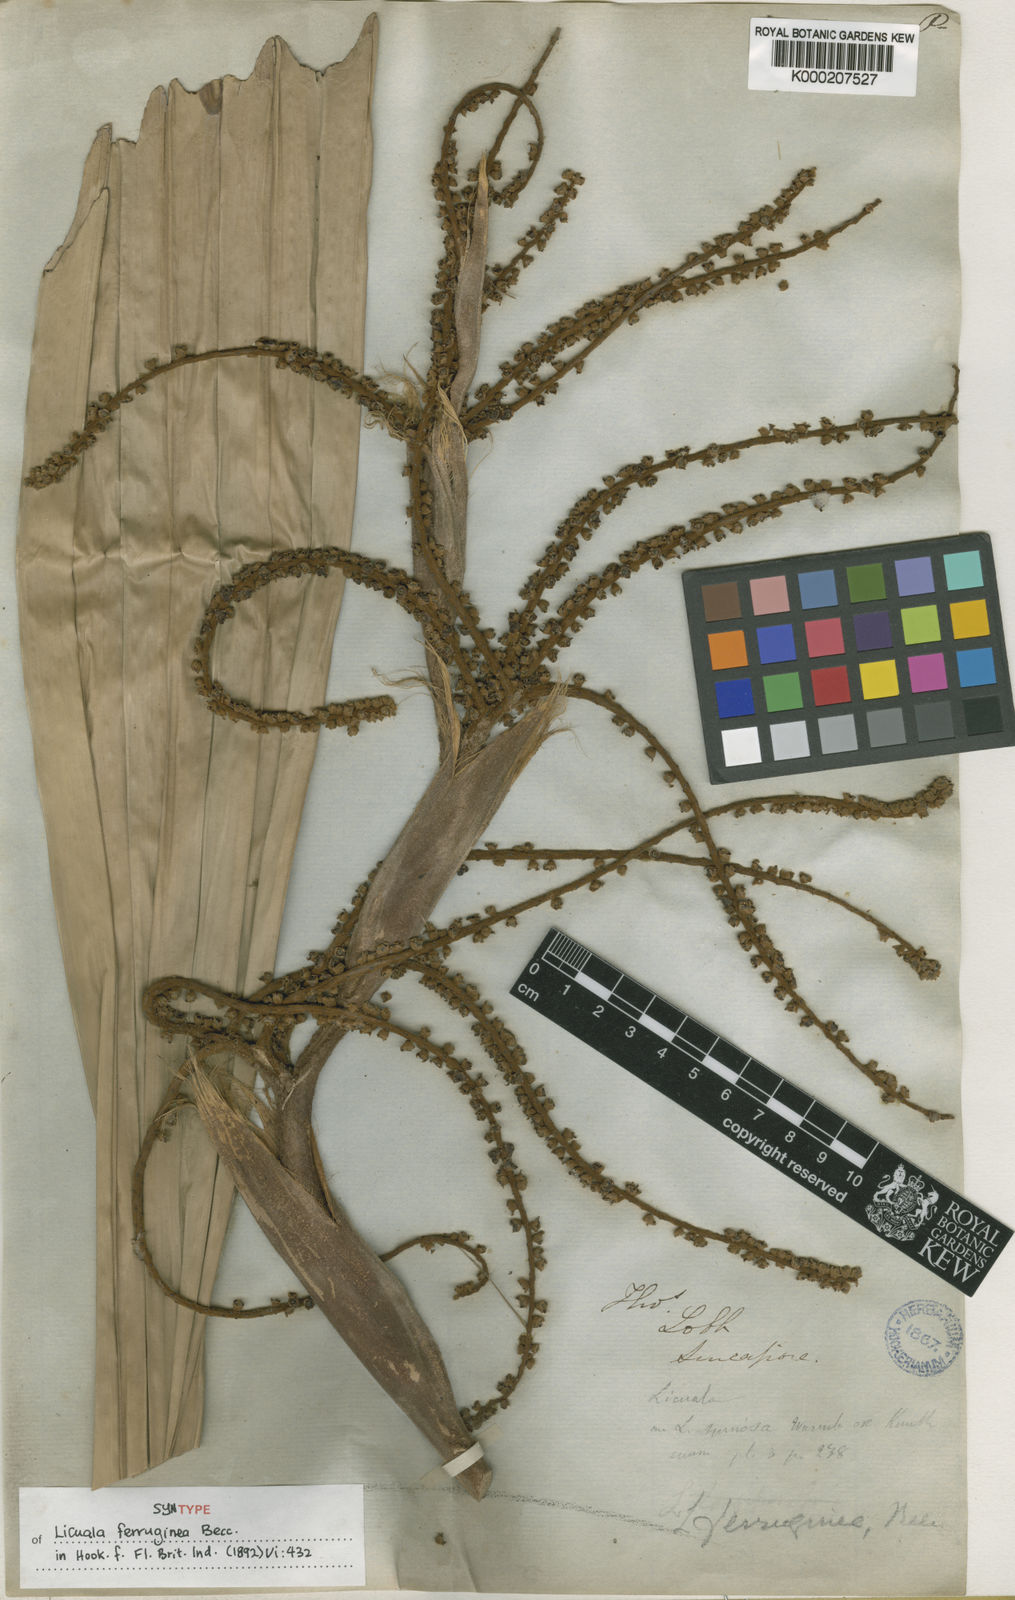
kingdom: Plantae
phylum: Tracheophyta
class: Liliopsida
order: Arecales
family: Arecaceae
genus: Licuala
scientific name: Licuala ferruginea
